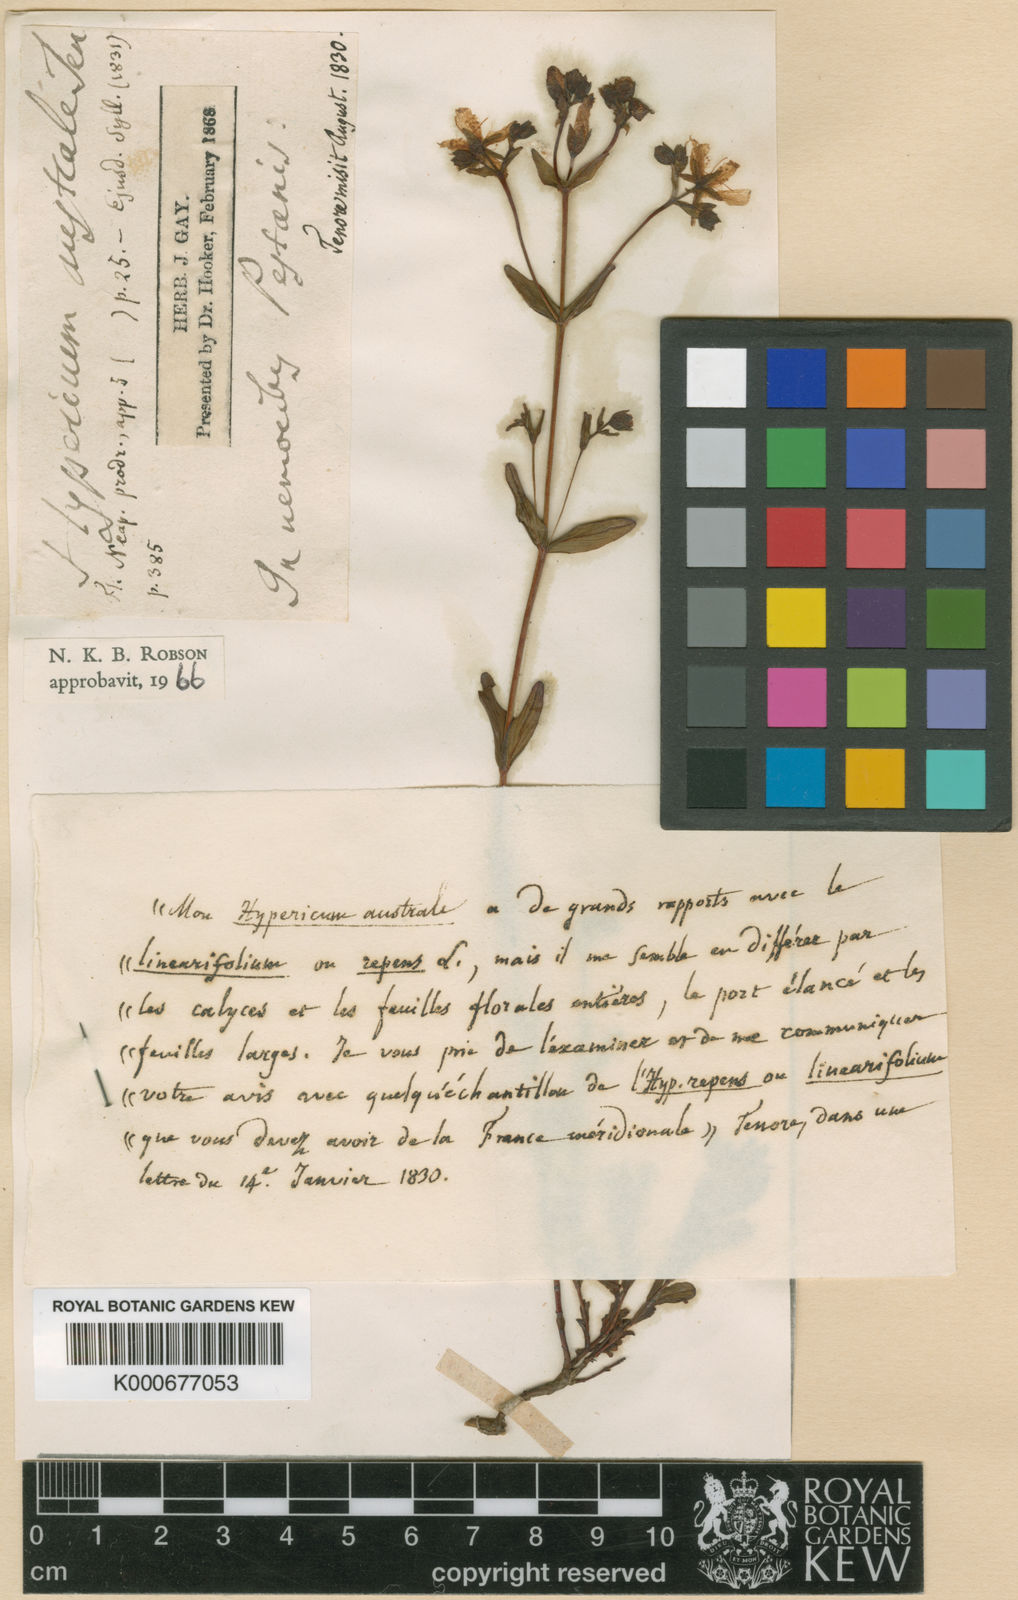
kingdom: Plantae
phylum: Tracheophyta
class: Magnoliopsida
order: Malpighiales
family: Hypericaceae
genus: Hypericum
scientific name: Hypericum australe
